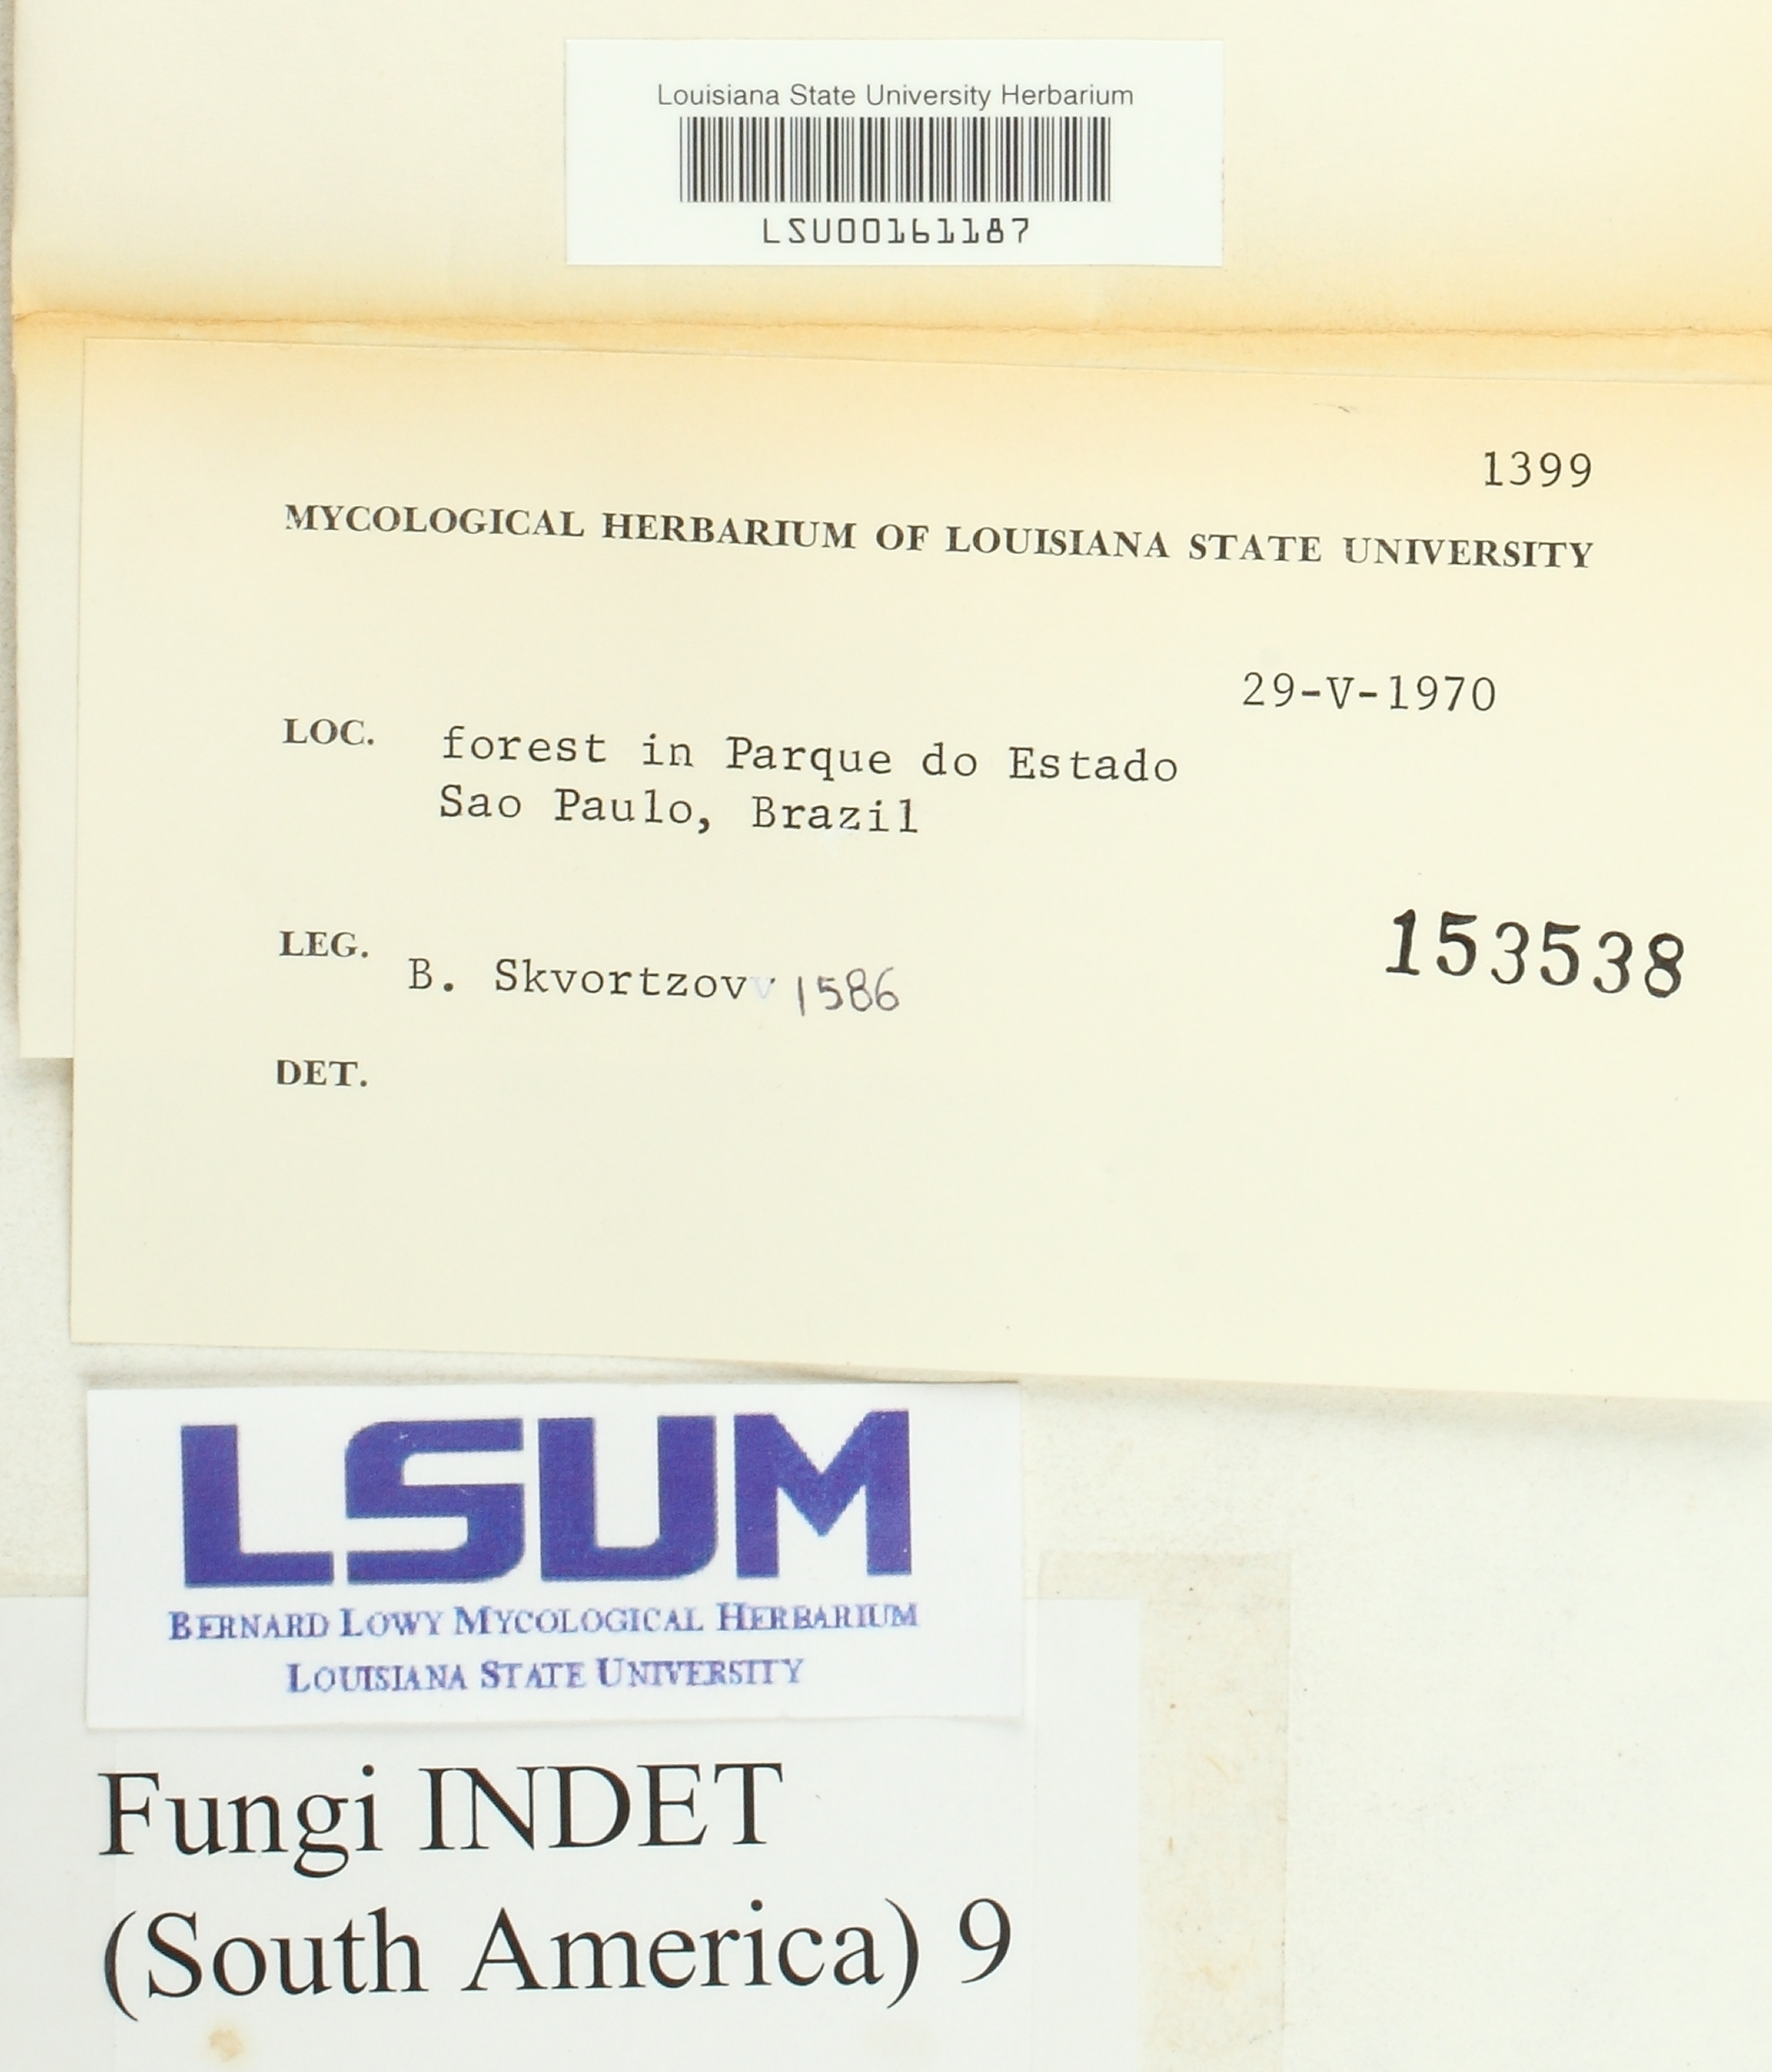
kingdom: Fungi
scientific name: Fungi
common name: Fungi
